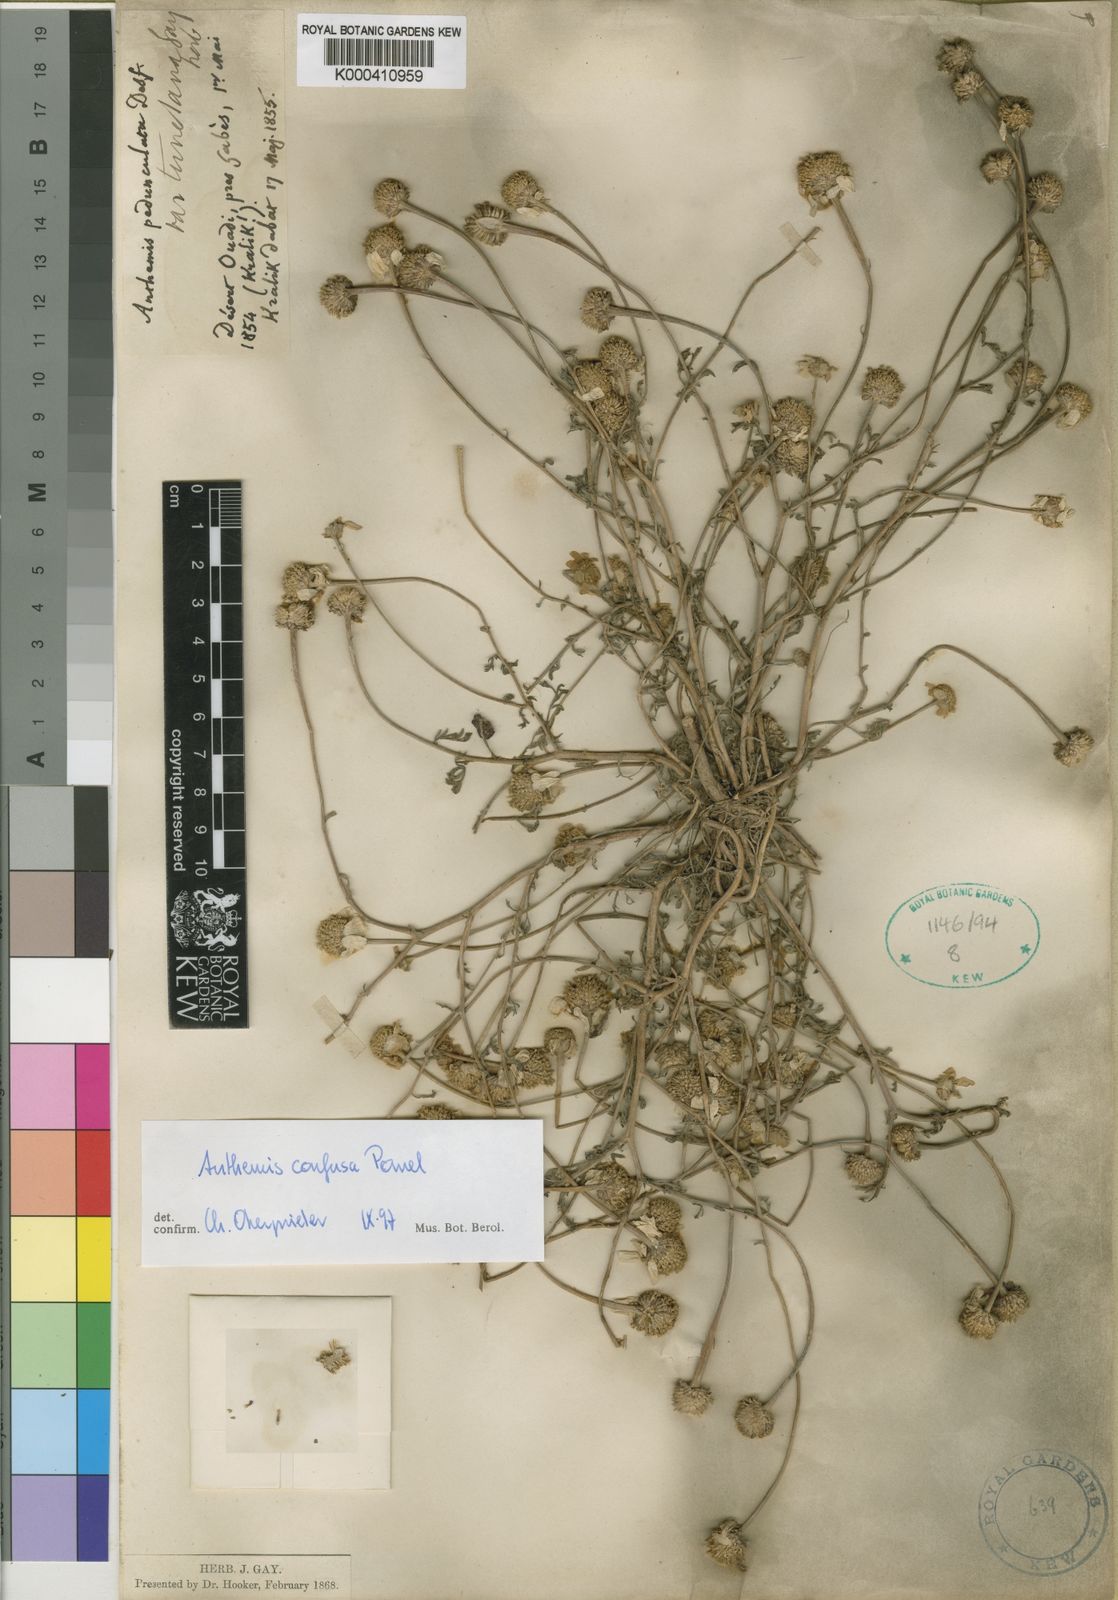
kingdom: Plantae
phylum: Tracheophyta
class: Magnoliopsida
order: Asterales
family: Asteraceae
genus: Anthemis
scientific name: Anthemis confusa
